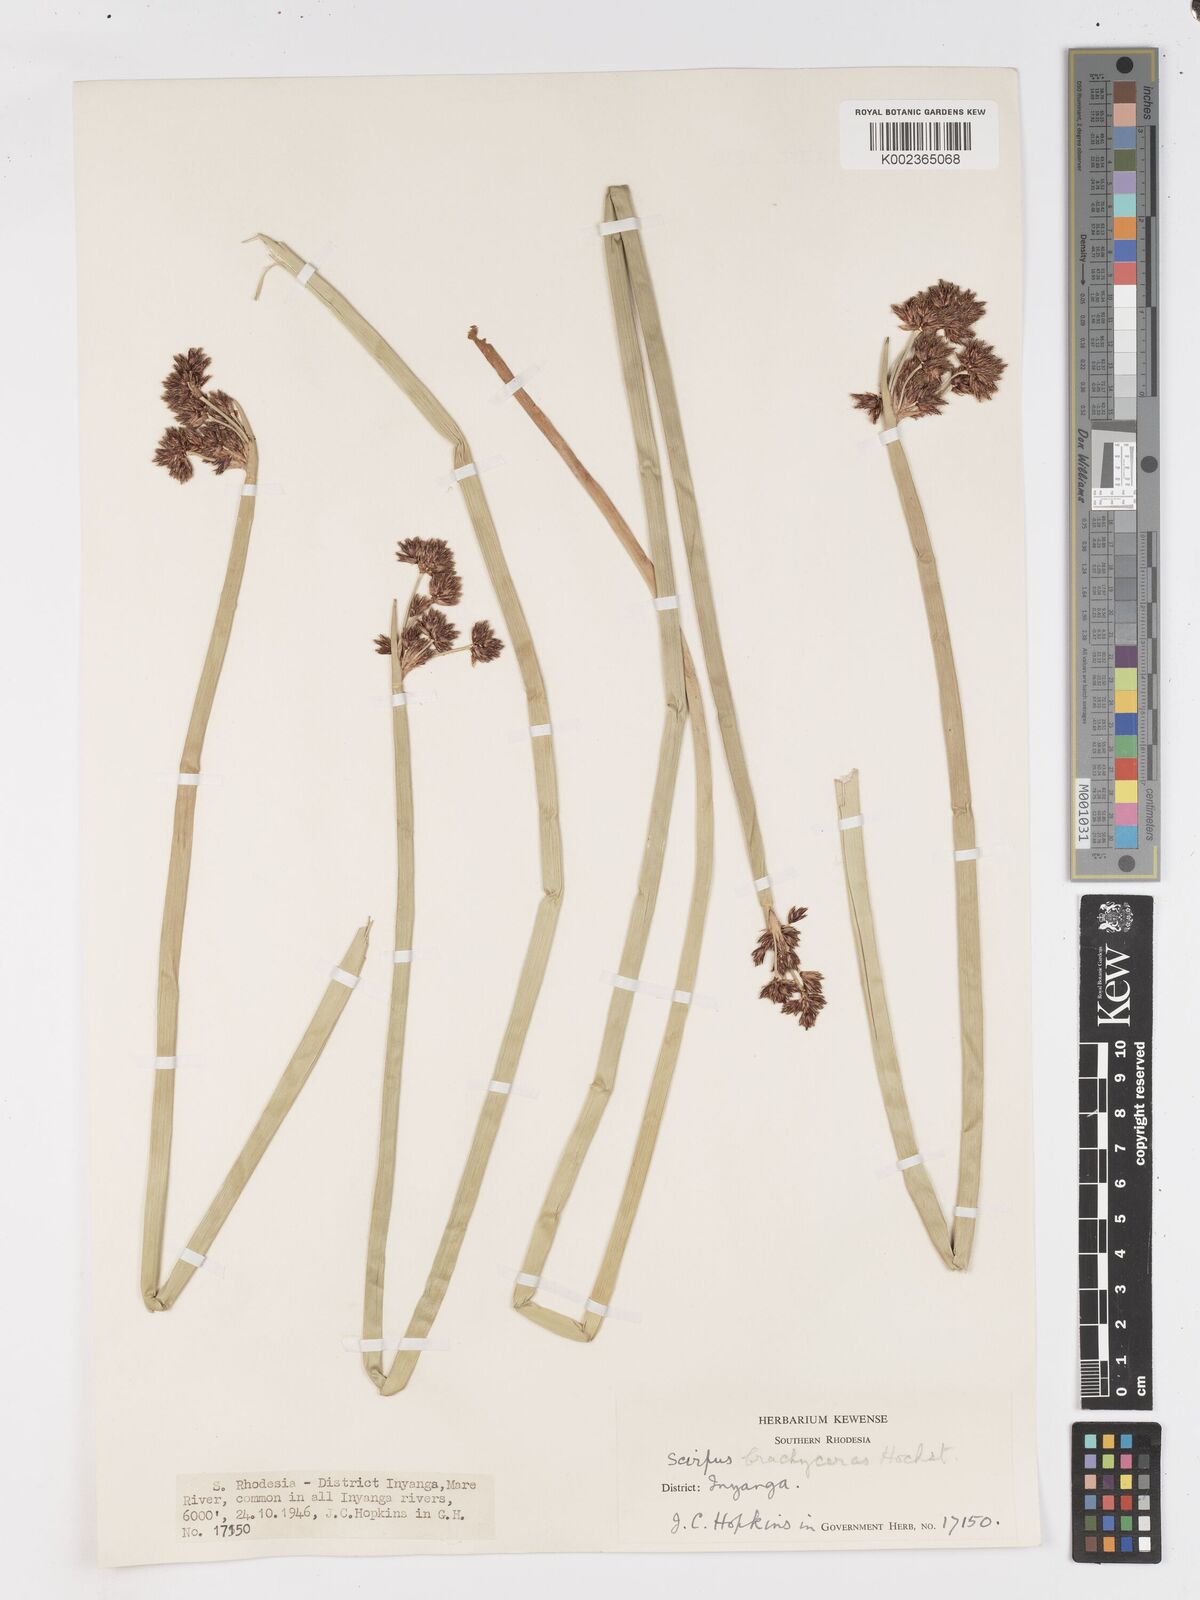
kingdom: Plantae
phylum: Tracheophyta
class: Liliopsida
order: Poales
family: Cyperaceae
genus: Schoenoplectiella
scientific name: Schoenoplectiella brachyceras
